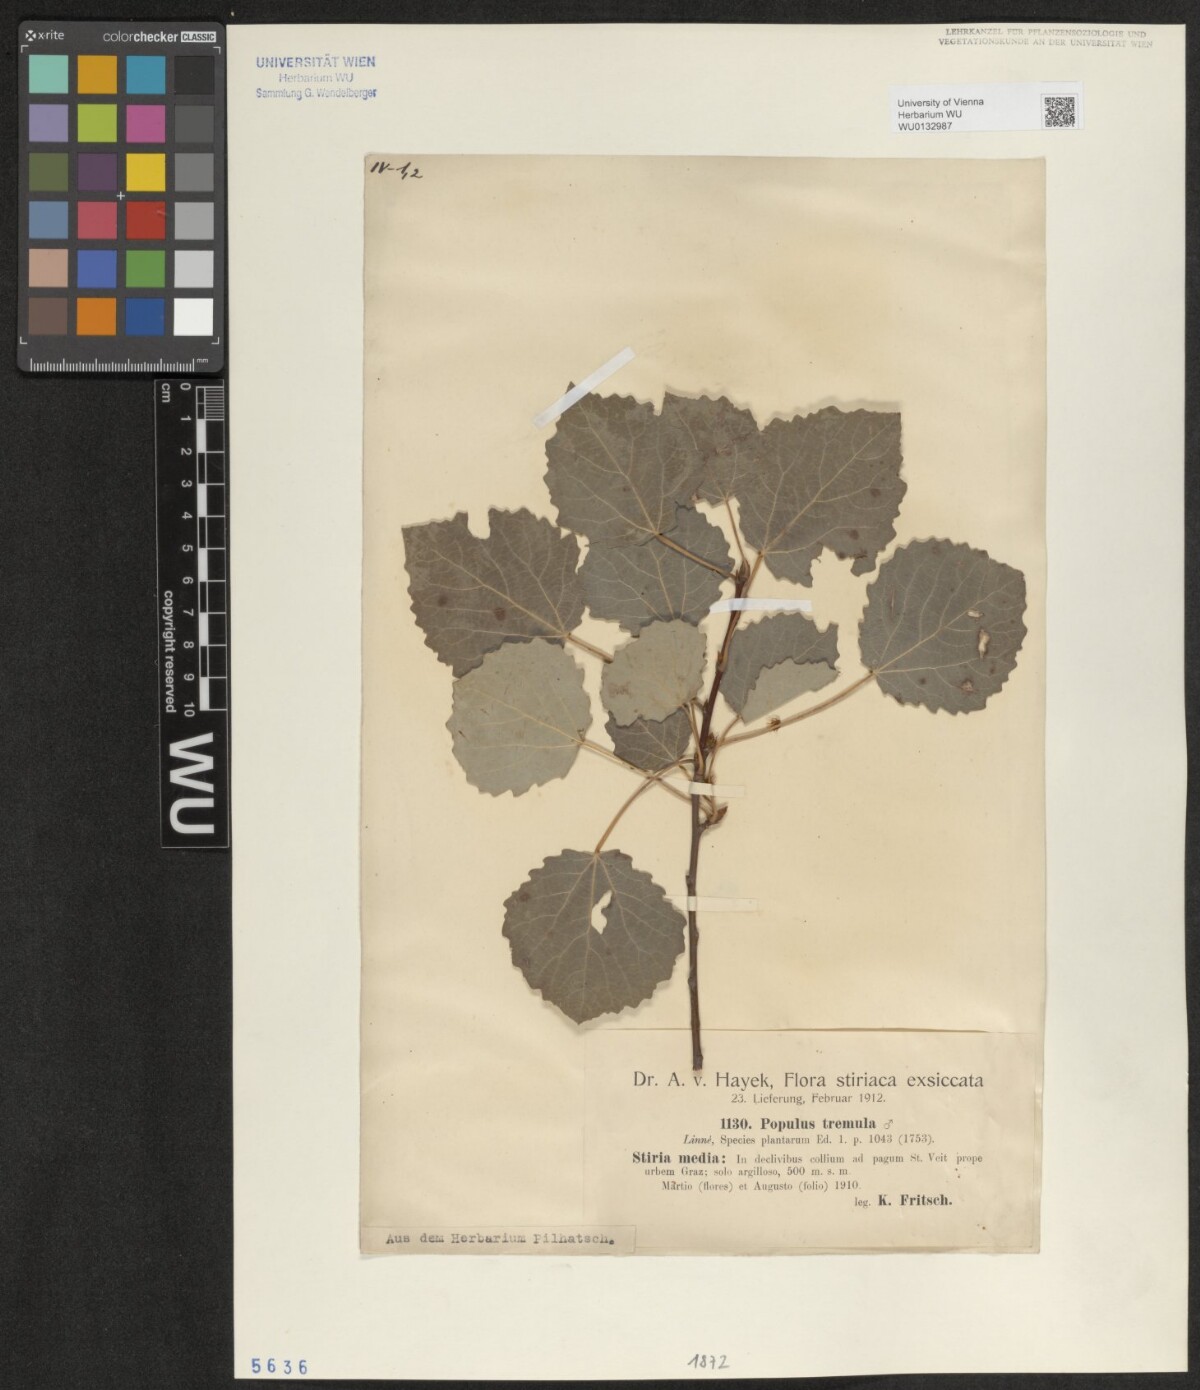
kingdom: Plantae
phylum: Tracheophyta
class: Magnoliopsida
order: Malpighiales
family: Salicaceae
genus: Populus
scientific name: Populus tremula
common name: European aspen
